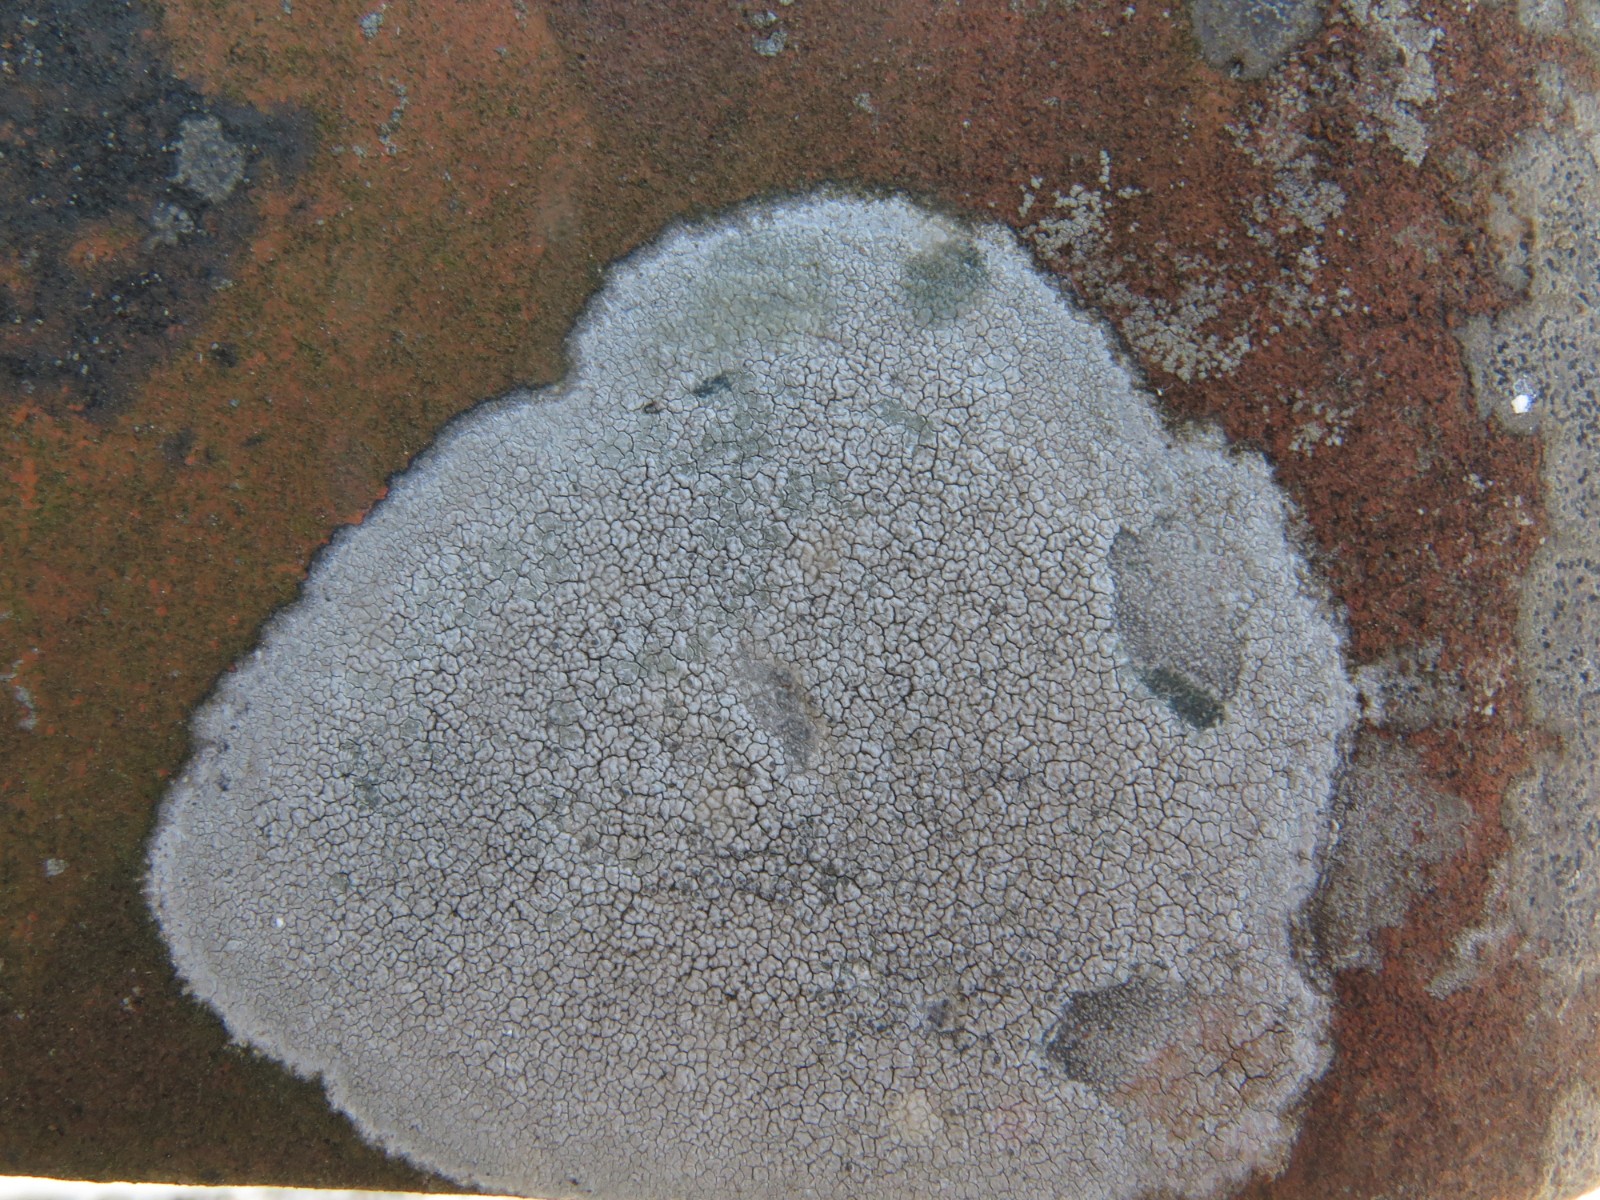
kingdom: Fungi
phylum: Ascomycota
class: Lecanoromycetes
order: Lecanorales
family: Lecanoraceae
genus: Glaucomaria
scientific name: Glaucomaria rupicola
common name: stengærde-kantskivelav
